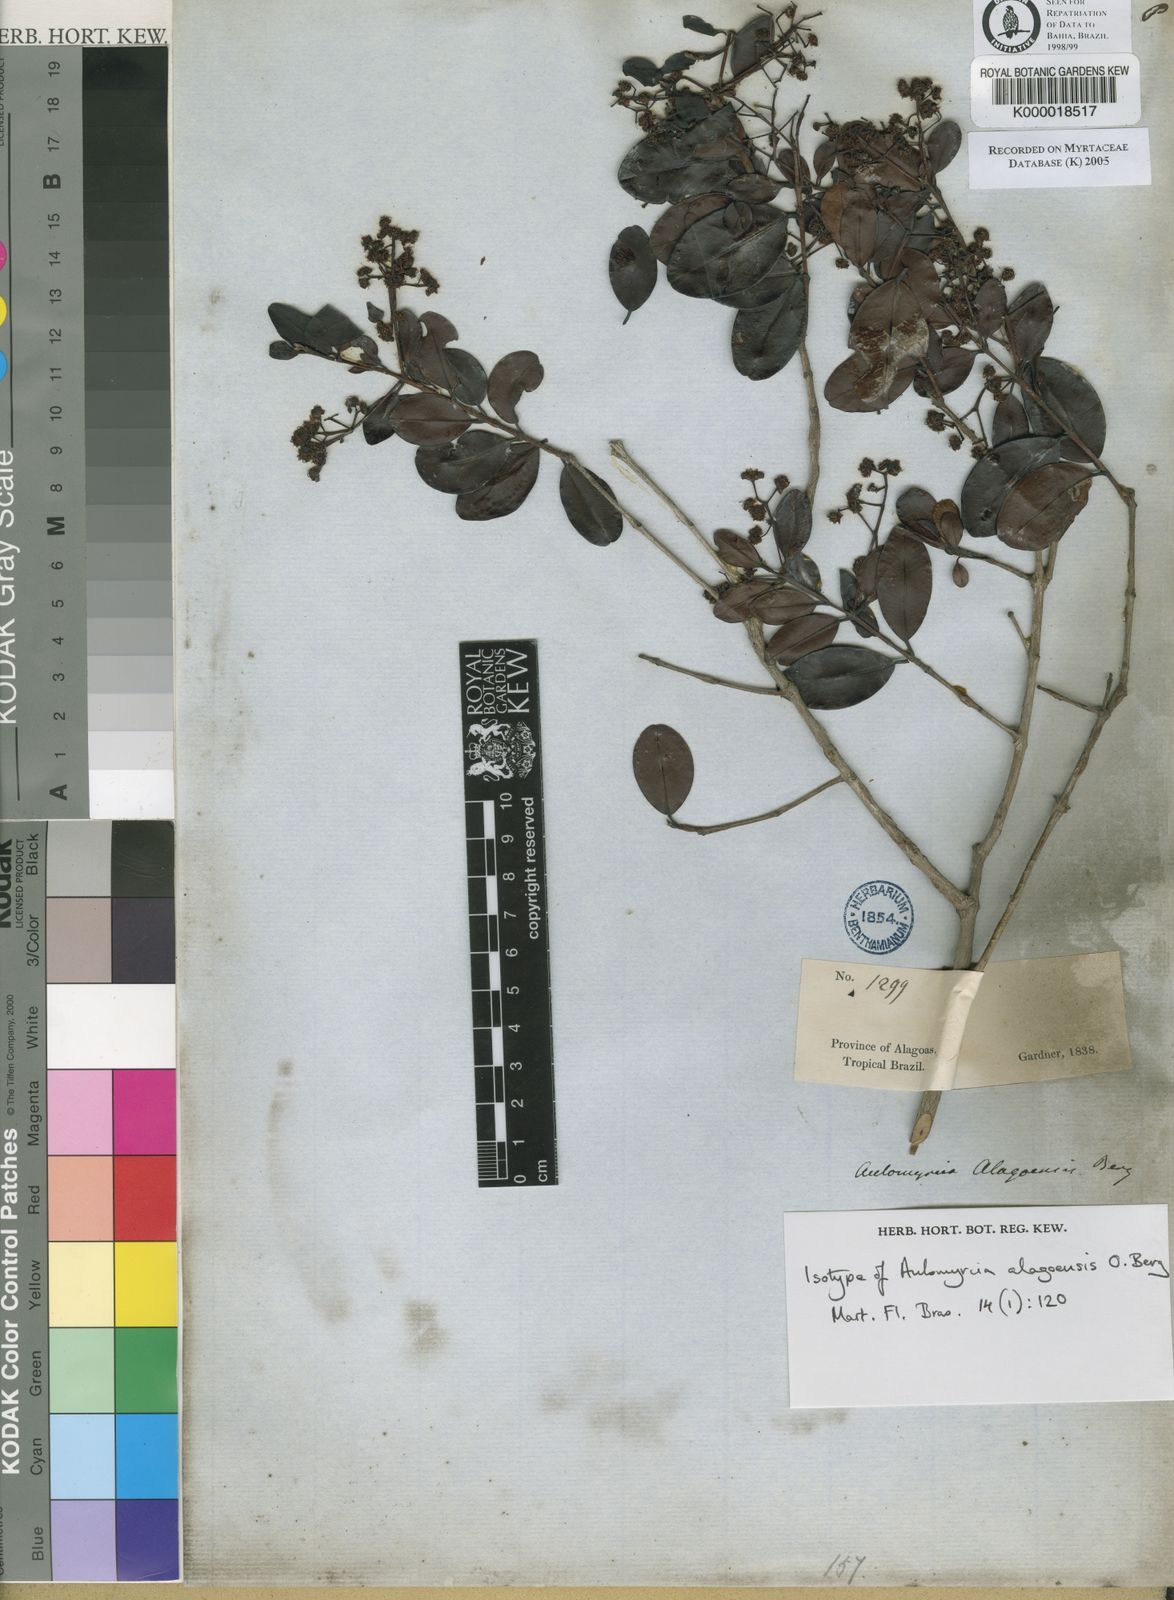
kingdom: Plantae
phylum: Tracheophyta
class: Magnoliopsida
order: Myrtales
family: Myrtaceae
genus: Myrcia
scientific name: Myrcia splendens
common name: Surinam cherry
